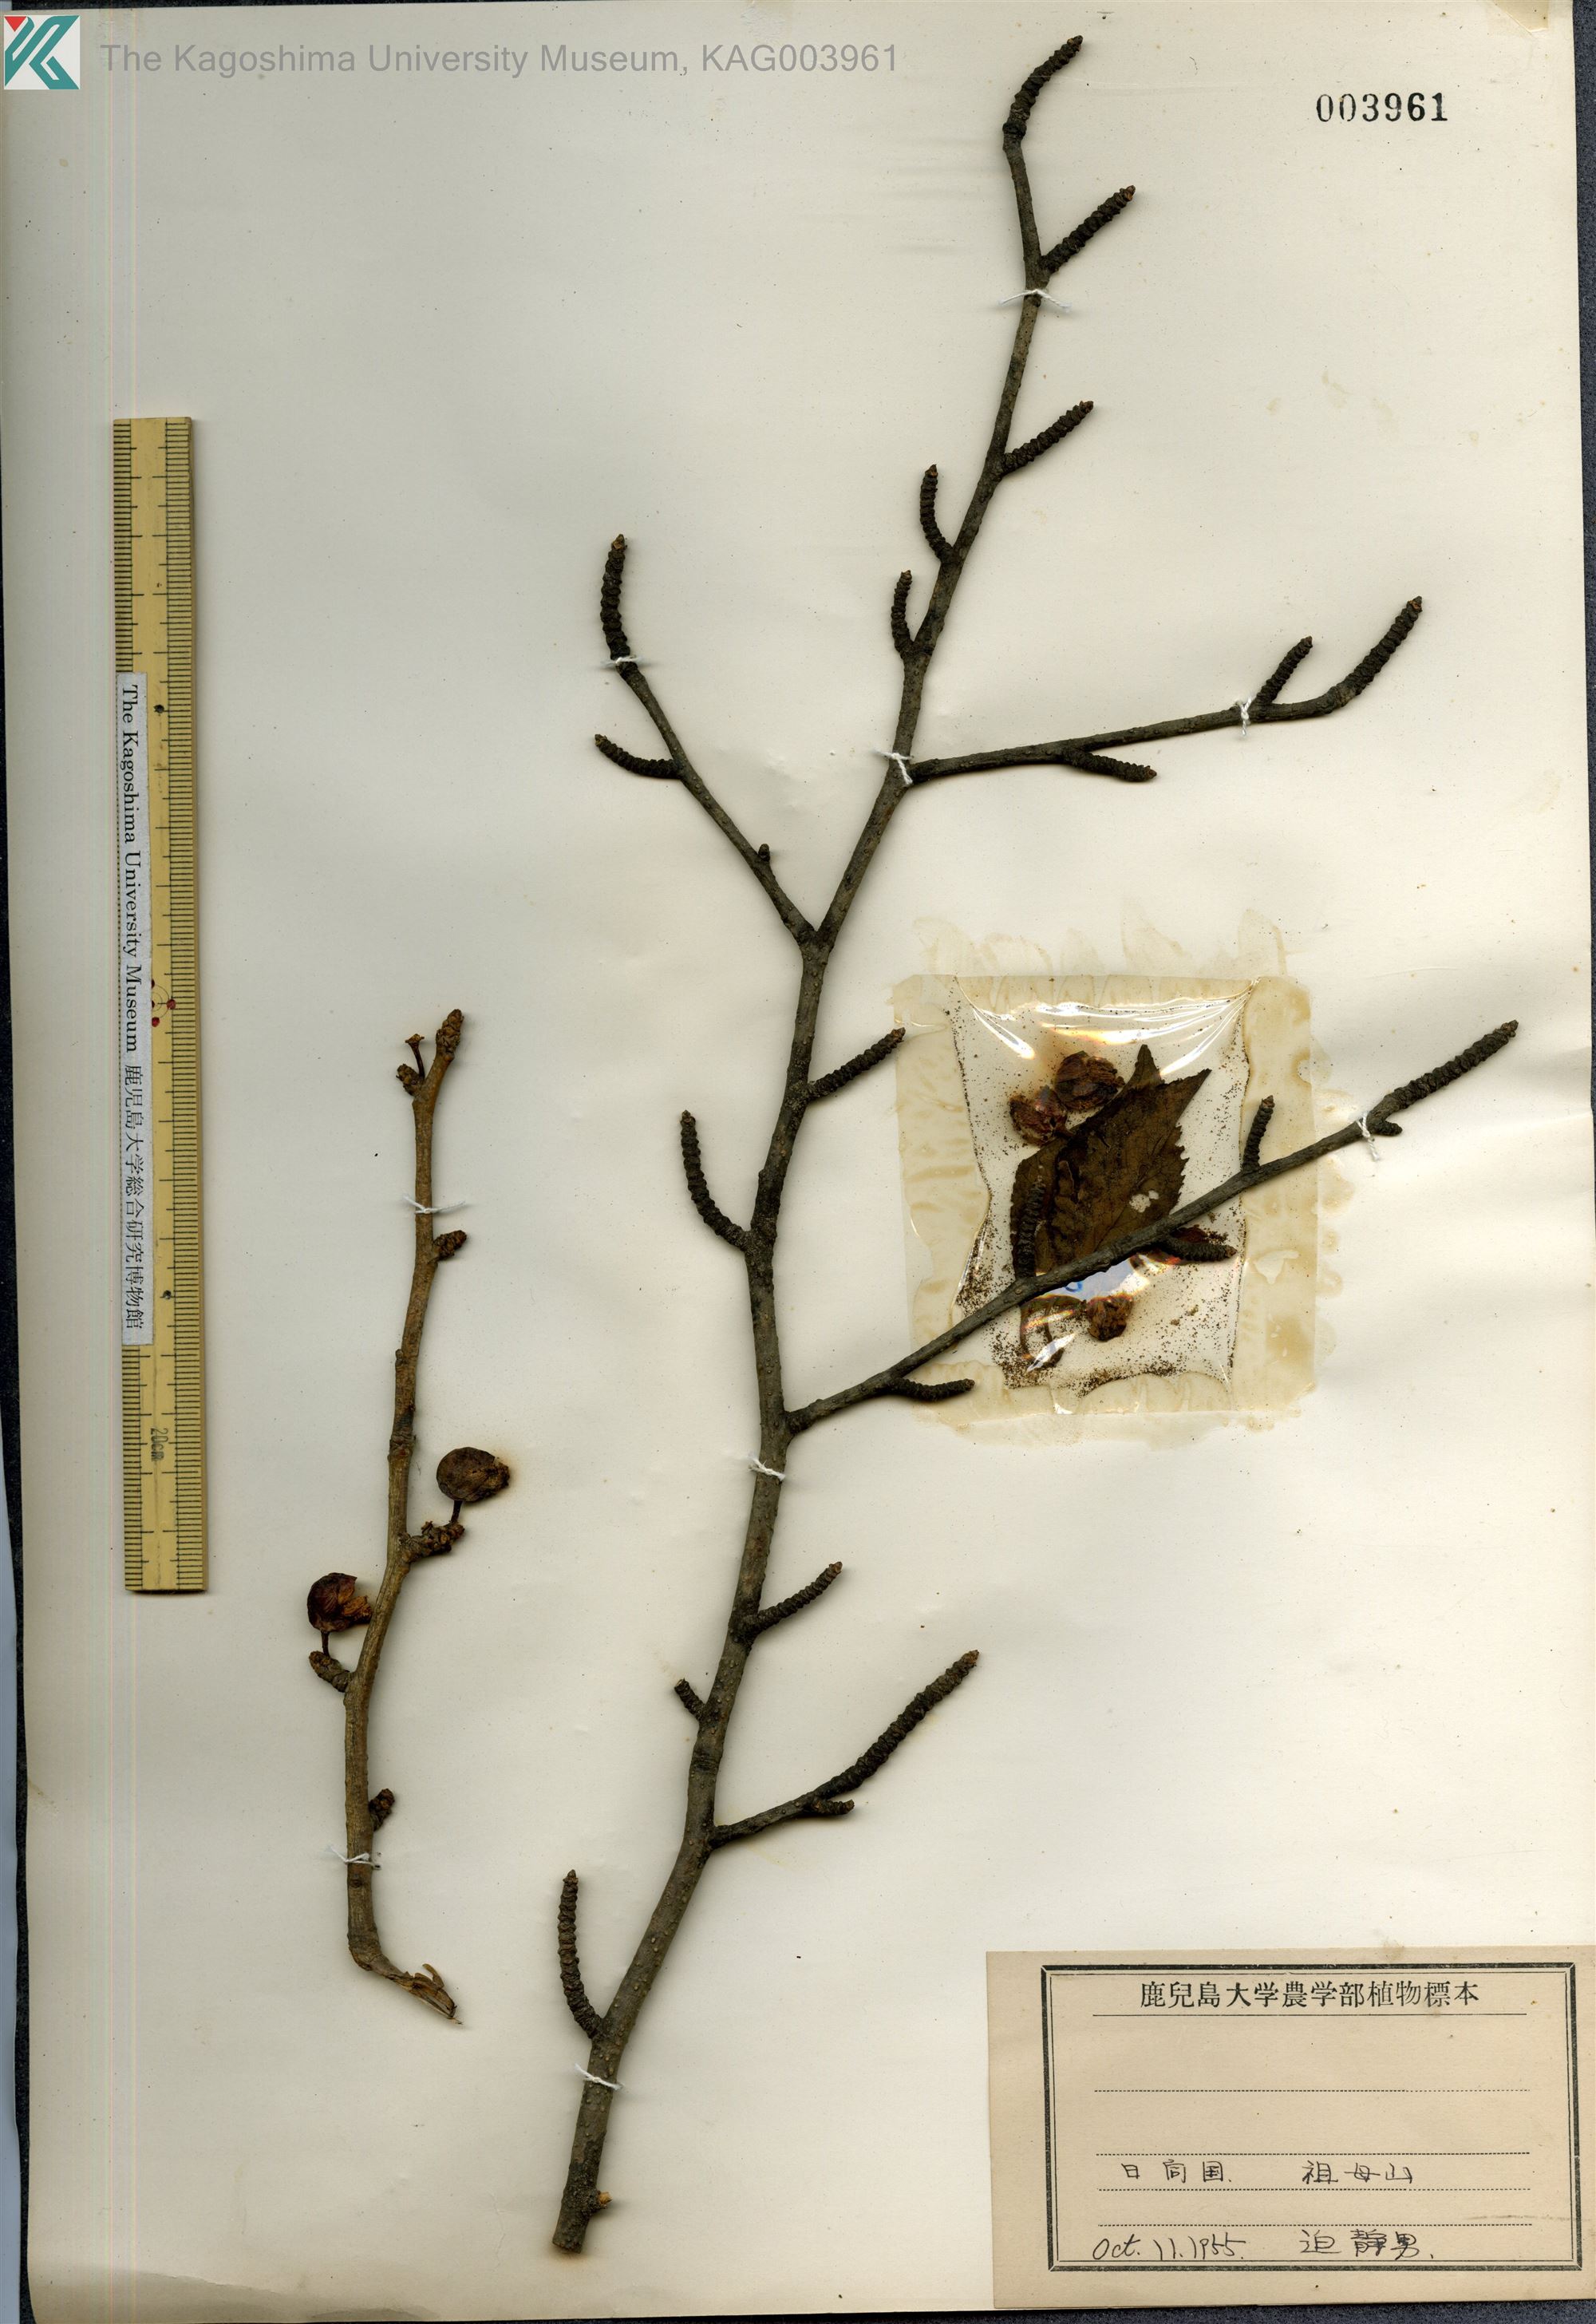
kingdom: Plantae
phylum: Tracheophyta
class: Magnoliopsida
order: Aquifoliales
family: Aquifoliaceae
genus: Ilex
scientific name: Ilex macropoda
